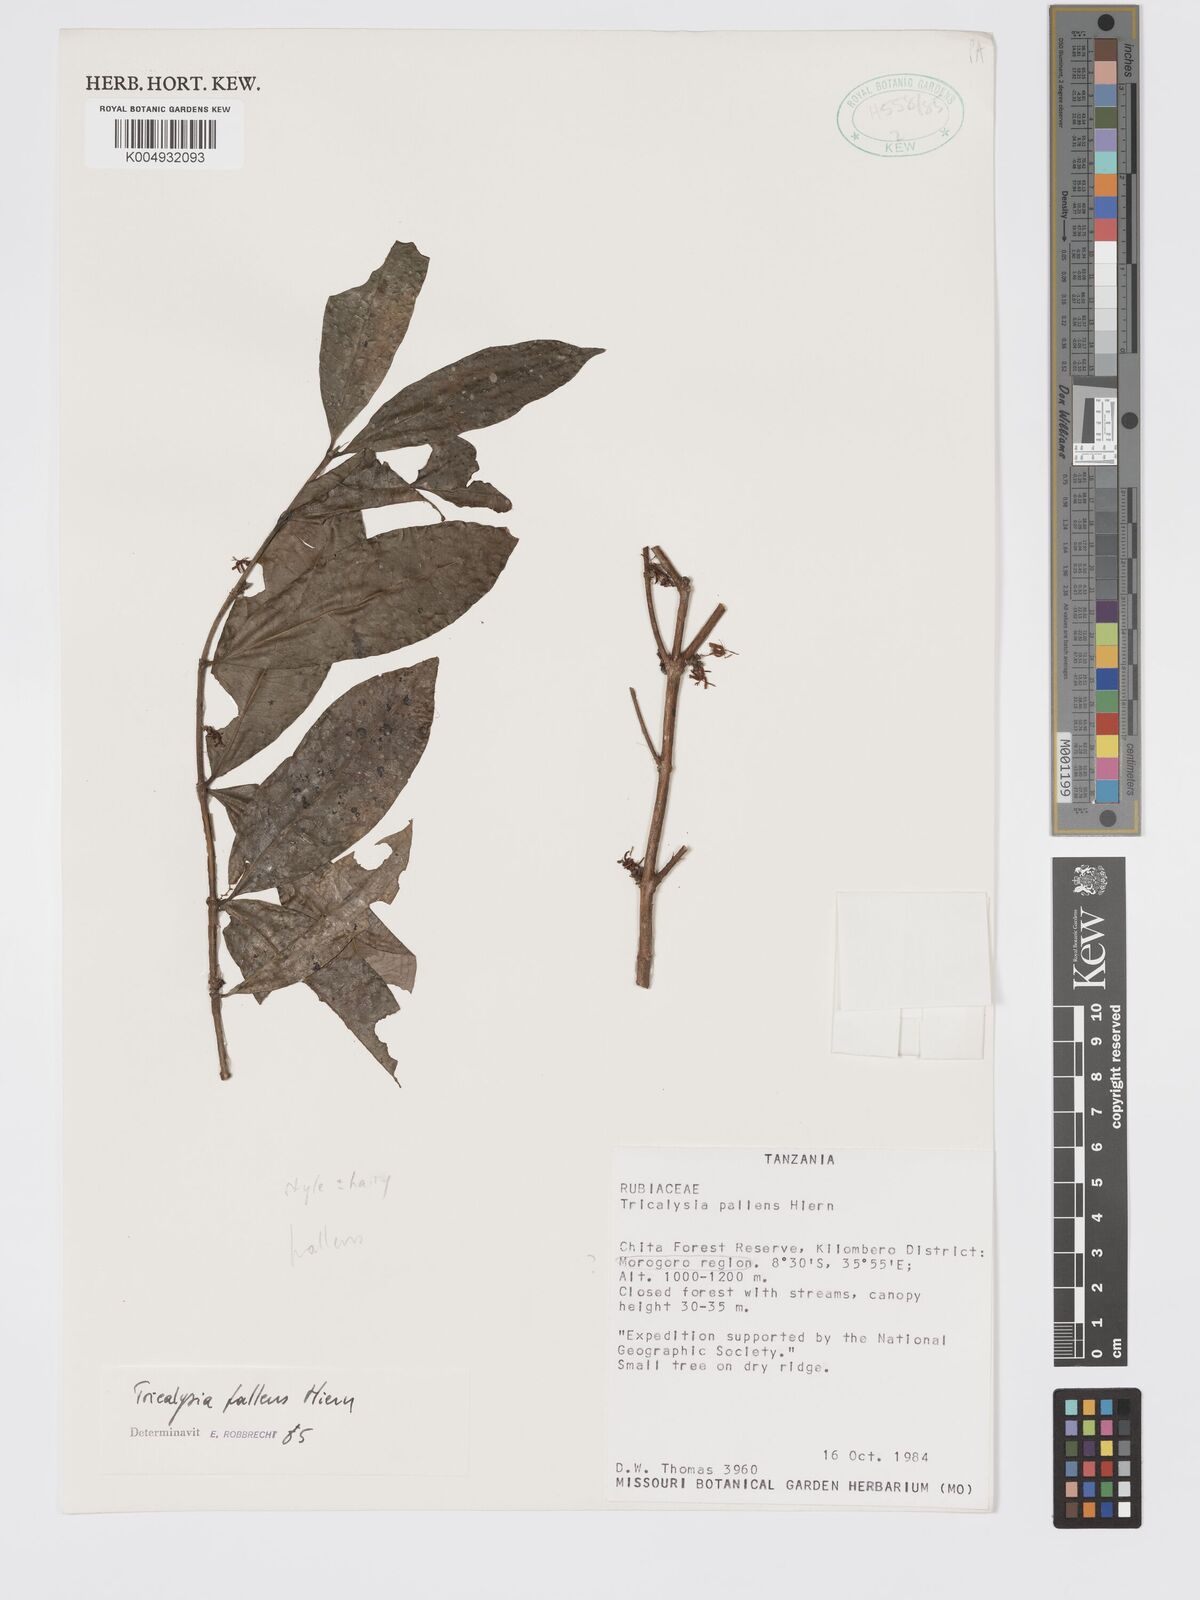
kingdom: Plantae
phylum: Tracheophyta
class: Magnoliopsida
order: Gentianales
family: Rubiaceae
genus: Tricalysia
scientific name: Tricalysia pallens
